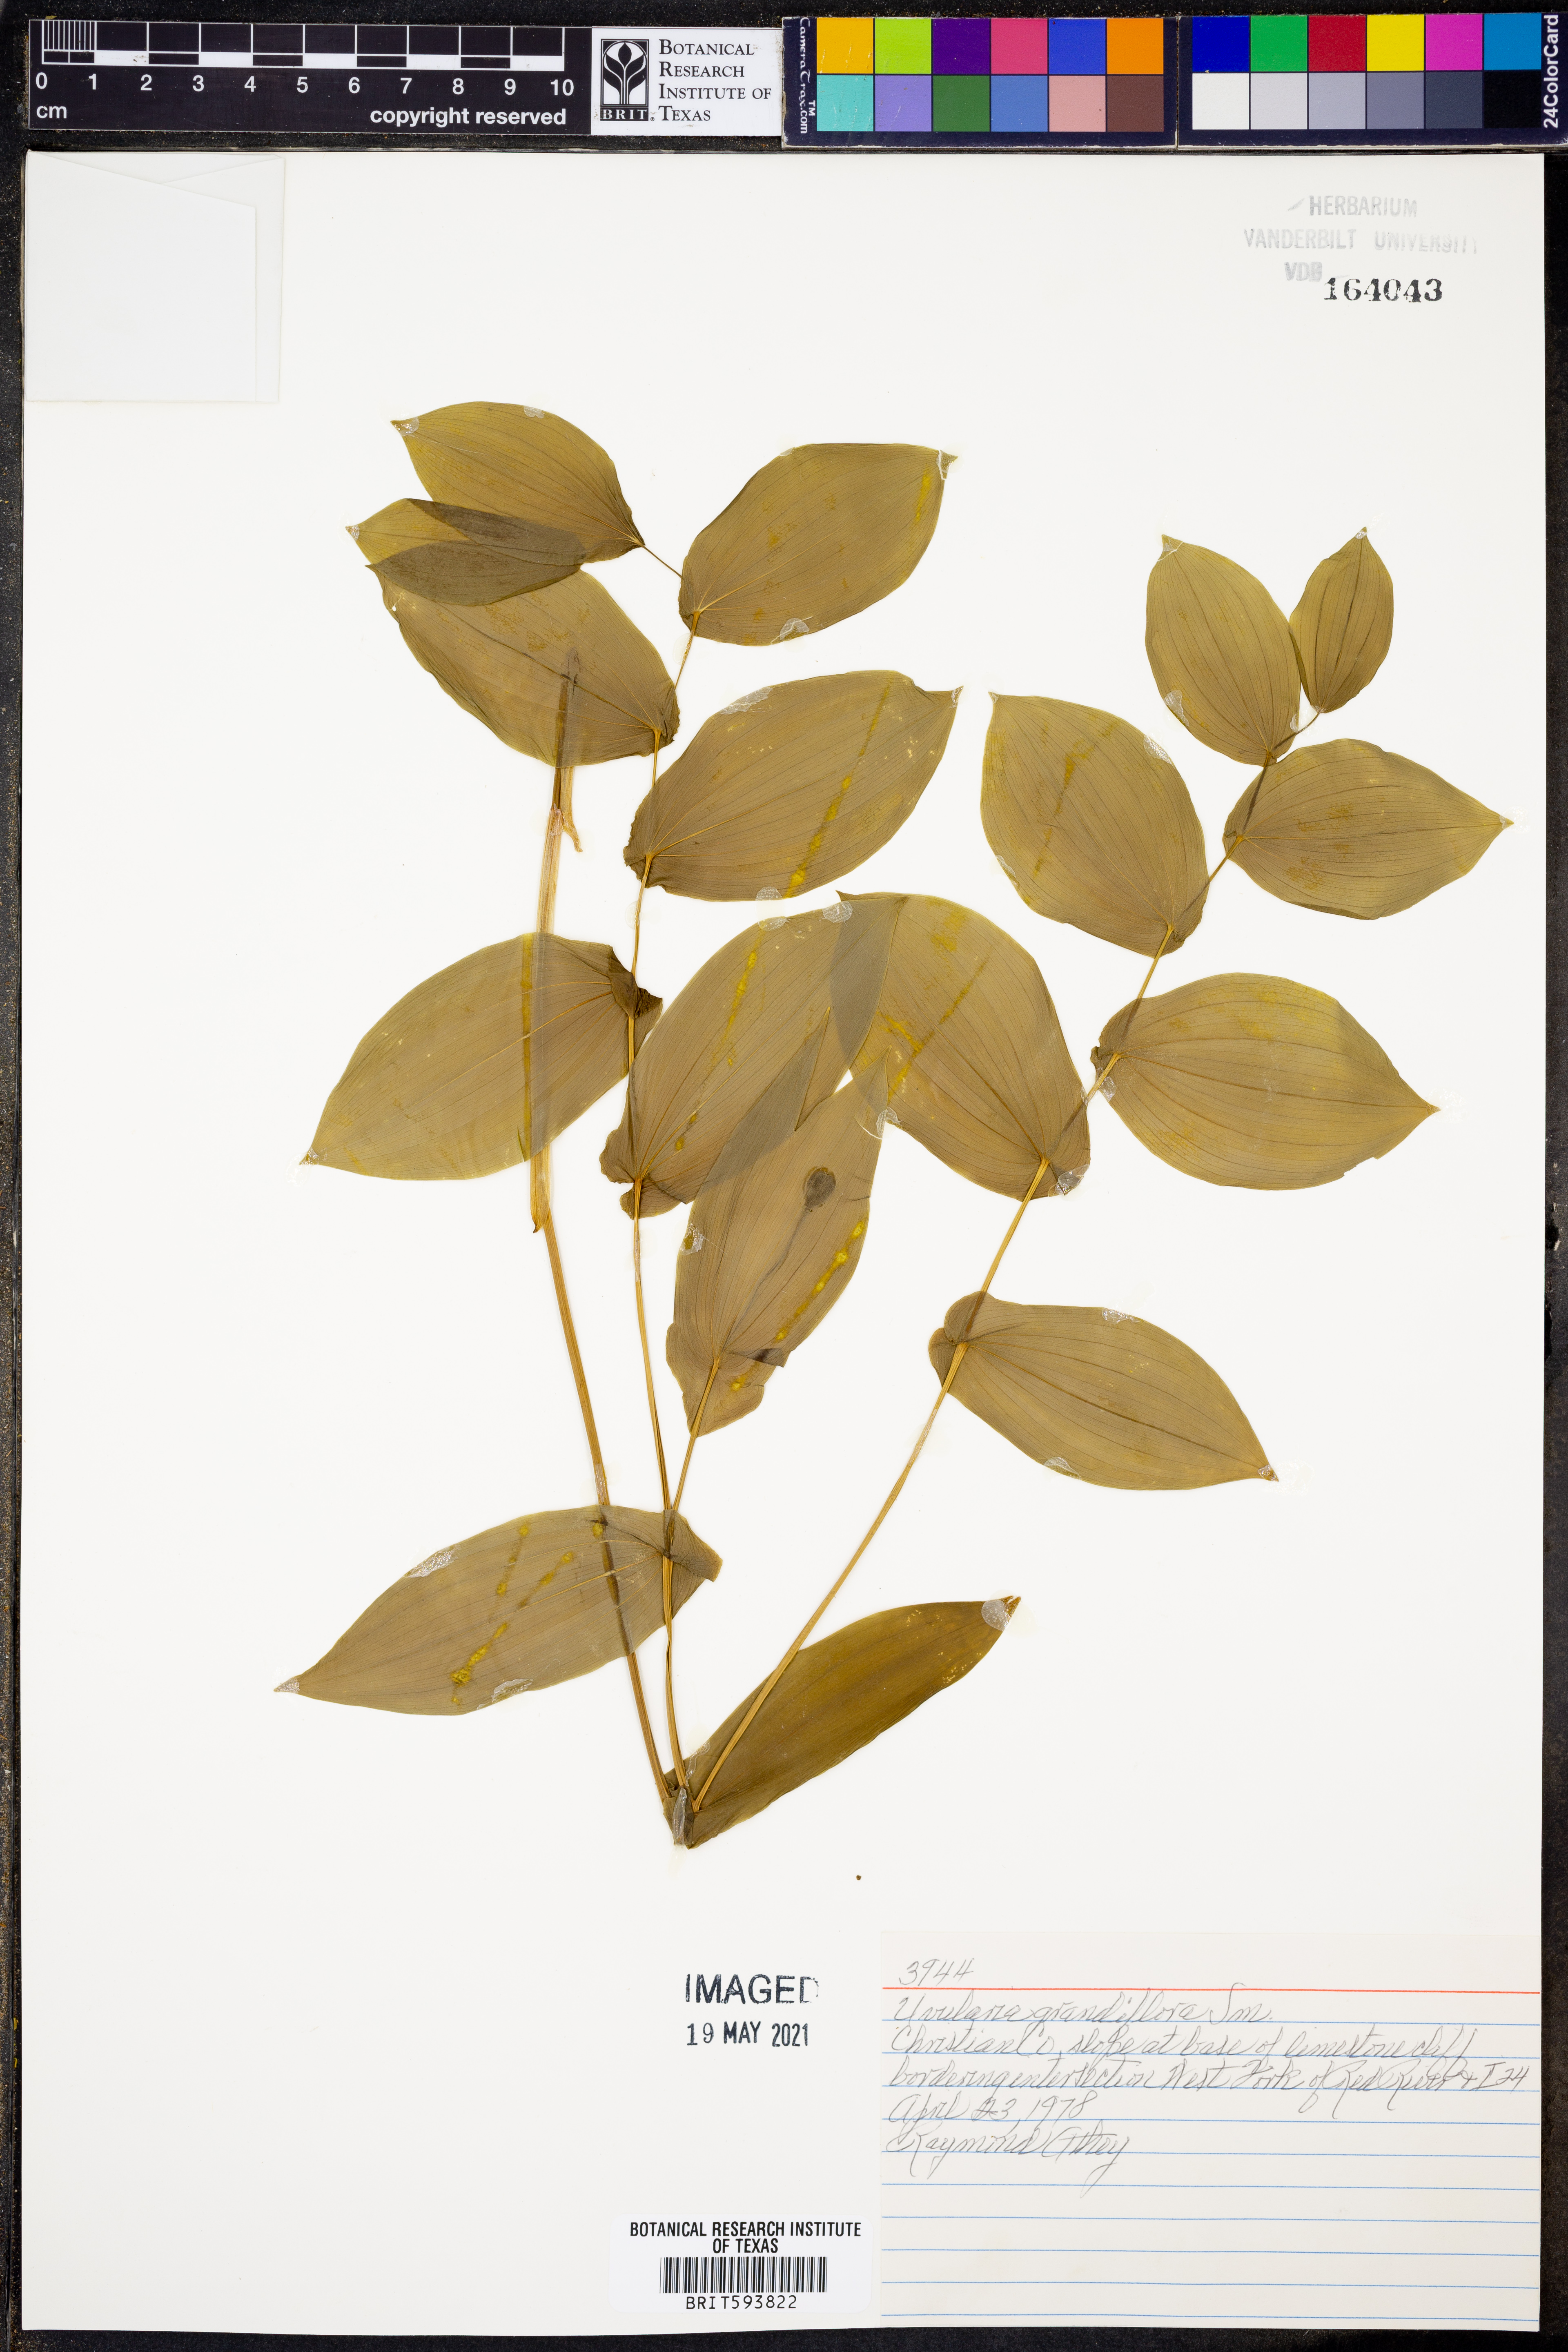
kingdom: Plantae
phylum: Tracheophyta
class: Liliopsida
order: Liliales
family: Colchicaceae
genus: Uvularia
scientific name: Uvularia grandiflora
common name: Bellwort
